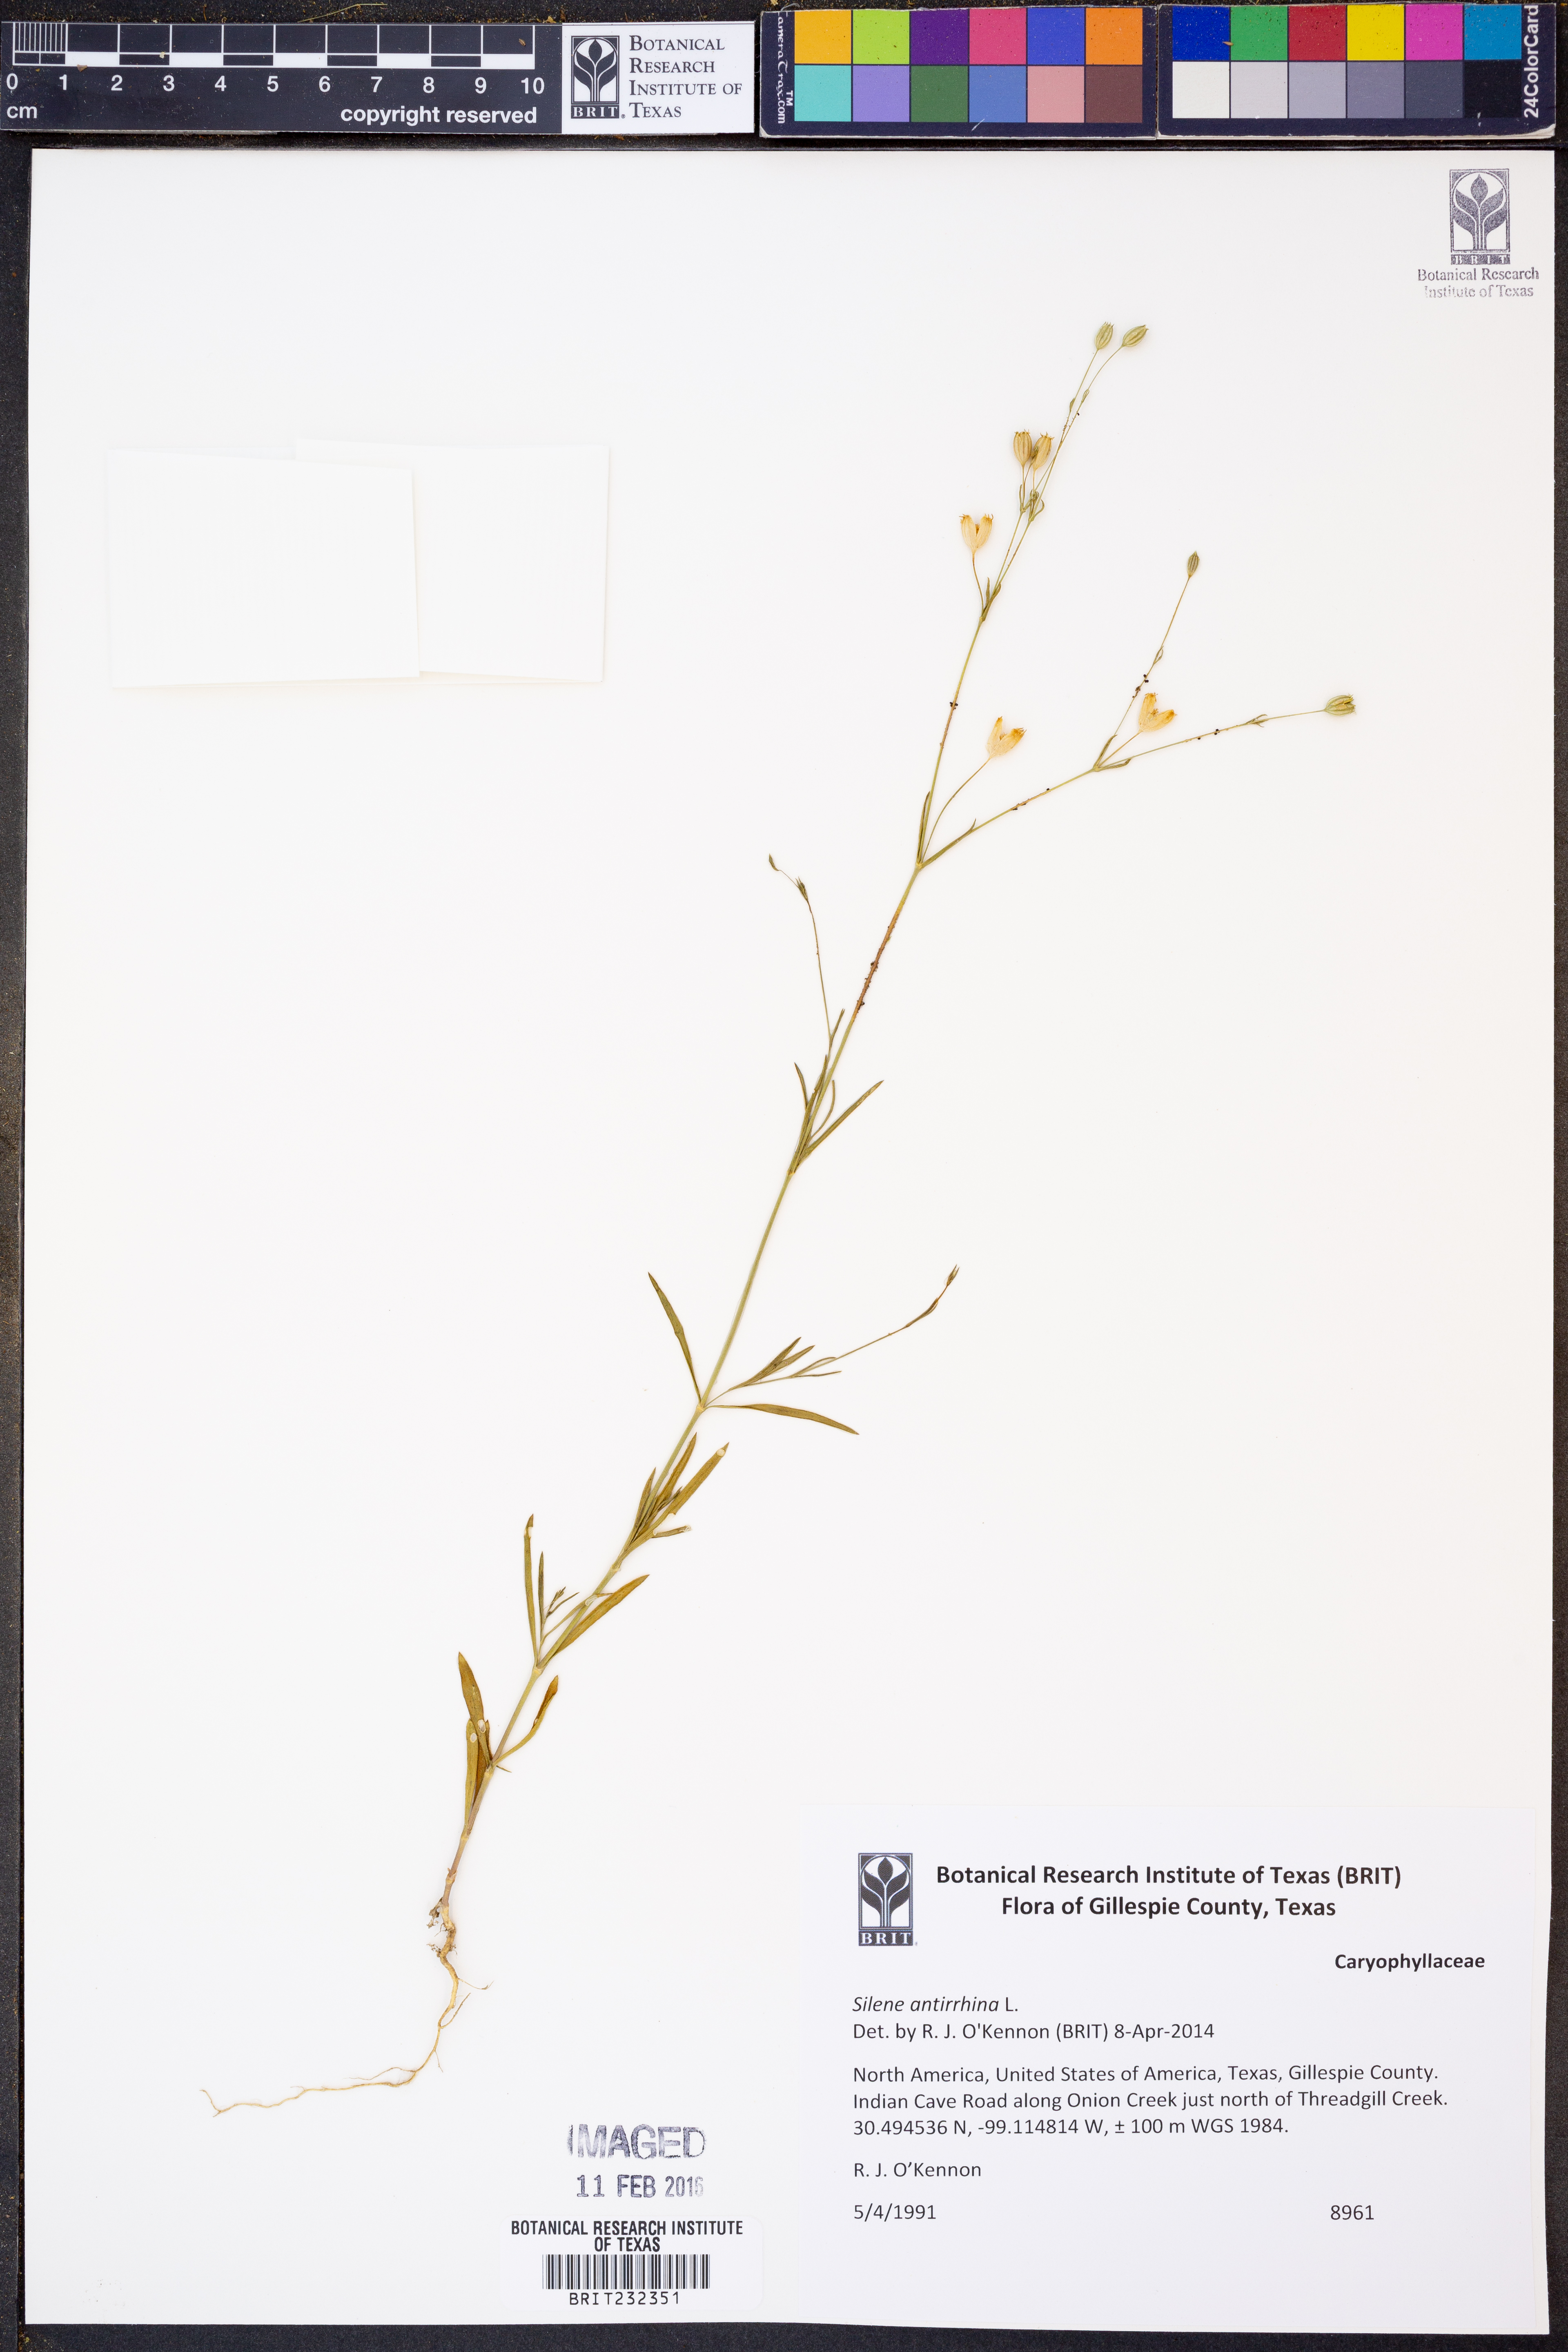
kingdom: Plantae
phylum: Tracheophyta
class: Magnoliopsida
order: Caryophyllales
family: Caryophyllaceae
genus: Silene
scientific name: Silene antirrhina
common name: Sleepy catchfly
